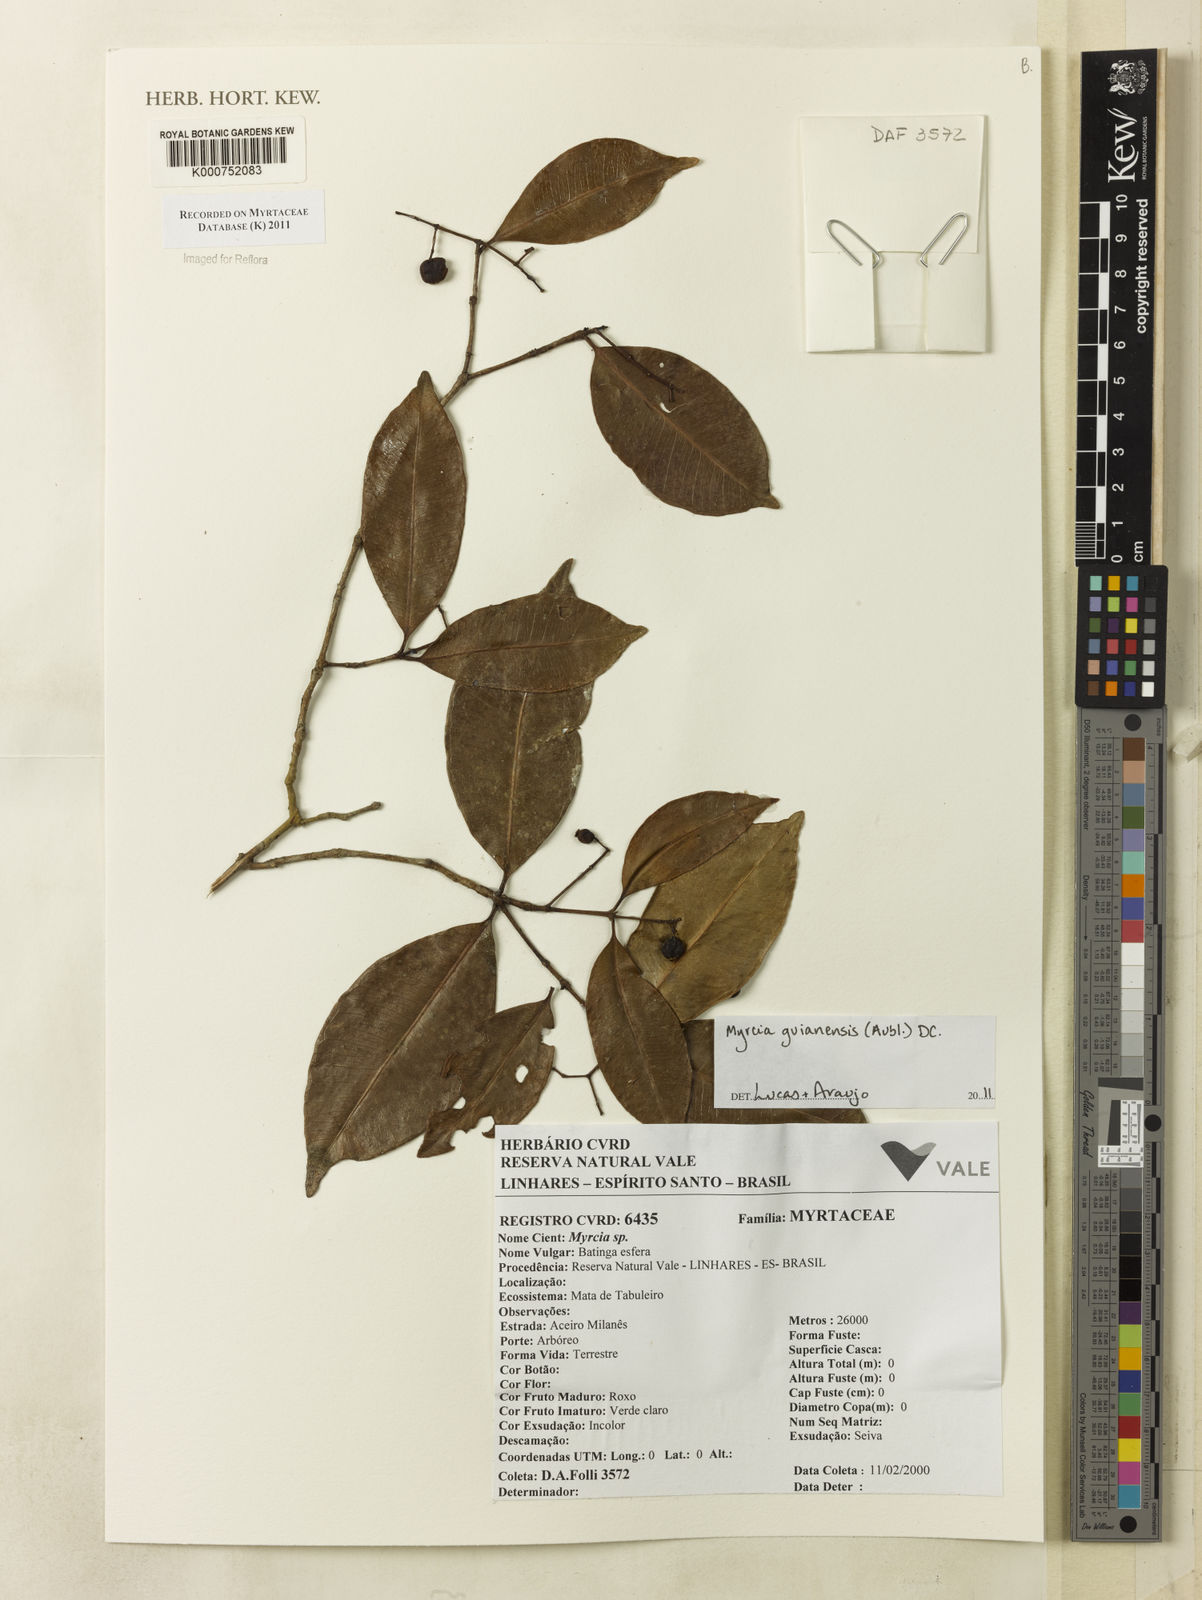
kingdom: Plantae
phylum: Tracheophyta
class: Magnoliopsida
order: Myrtales
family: Myrtaceae
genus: Myrcia
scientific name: Myrcia guianensis
